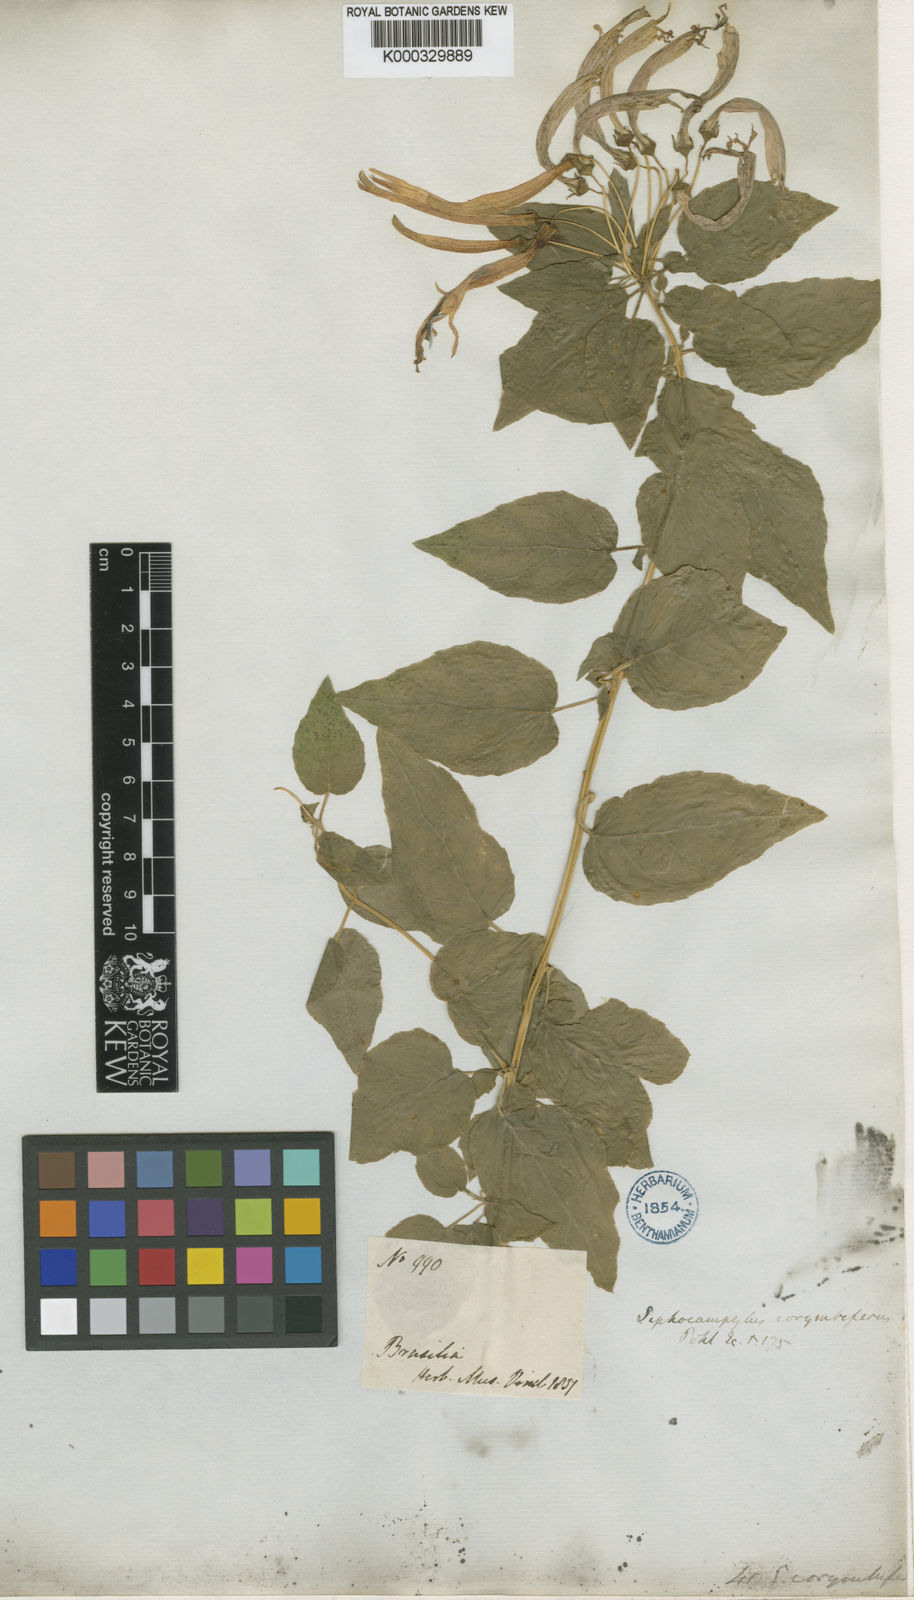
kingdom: Plantae
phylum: Tracheophyta
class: Magnoliopsida
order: Asterales
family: Campanulaceae
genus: Siphocampylus
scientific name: Siphocampylus corymbifer
